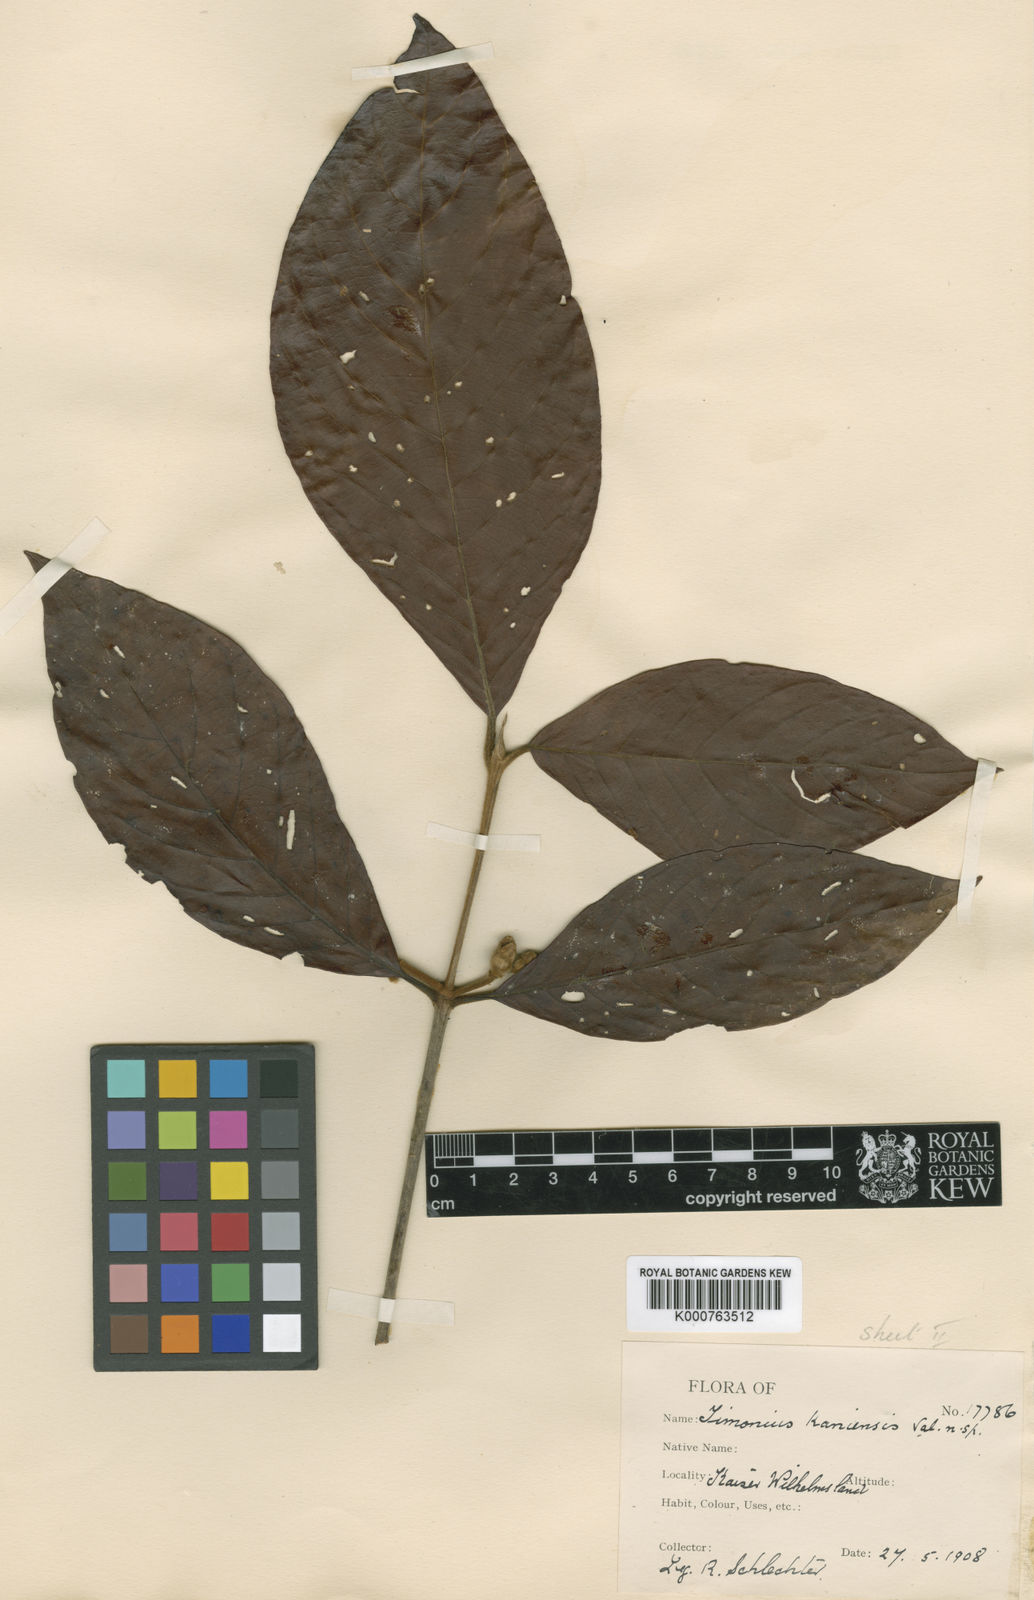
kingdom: Plantae
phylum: Tracheophyta
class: Magnoliopsida
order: Gentianales
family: Rubiaceae
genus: Timonius
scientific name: Timonius kaniensis
